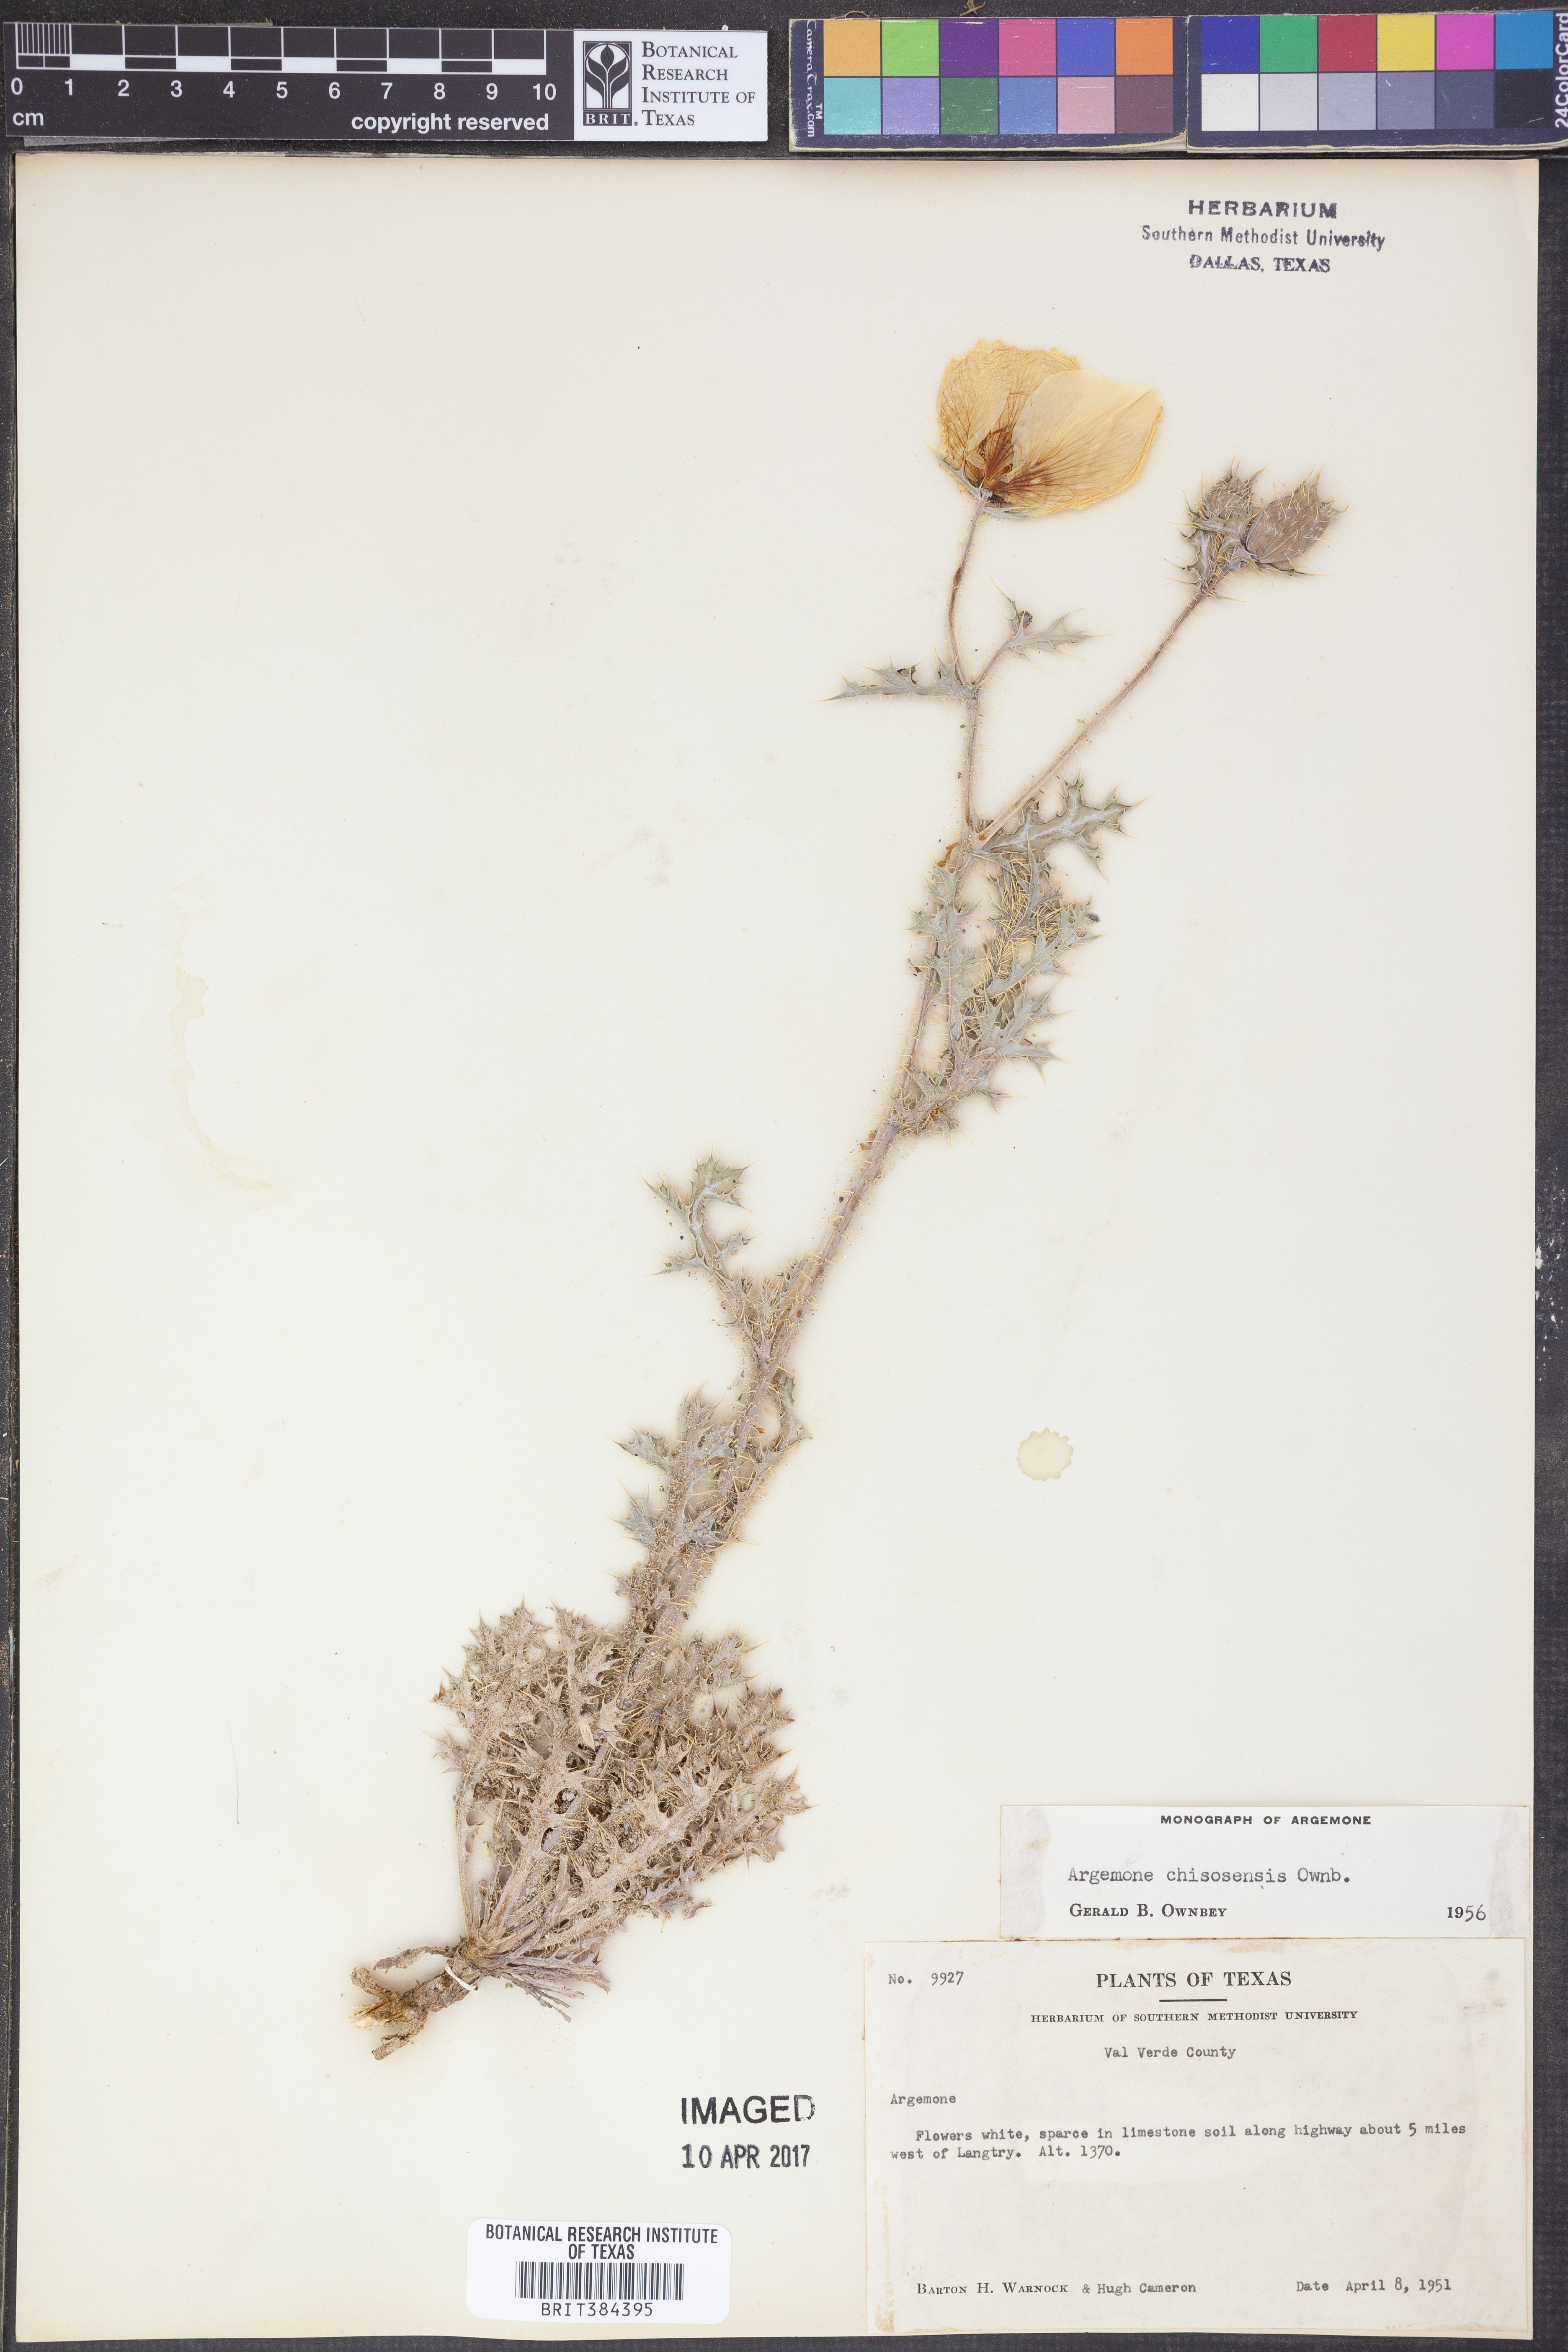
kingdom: Plantae
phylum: Tracheophyta
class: Magnoliopsida
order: Ranunculales
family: Papaveraceae
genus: Argemone
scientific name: Argemone chisosensis
